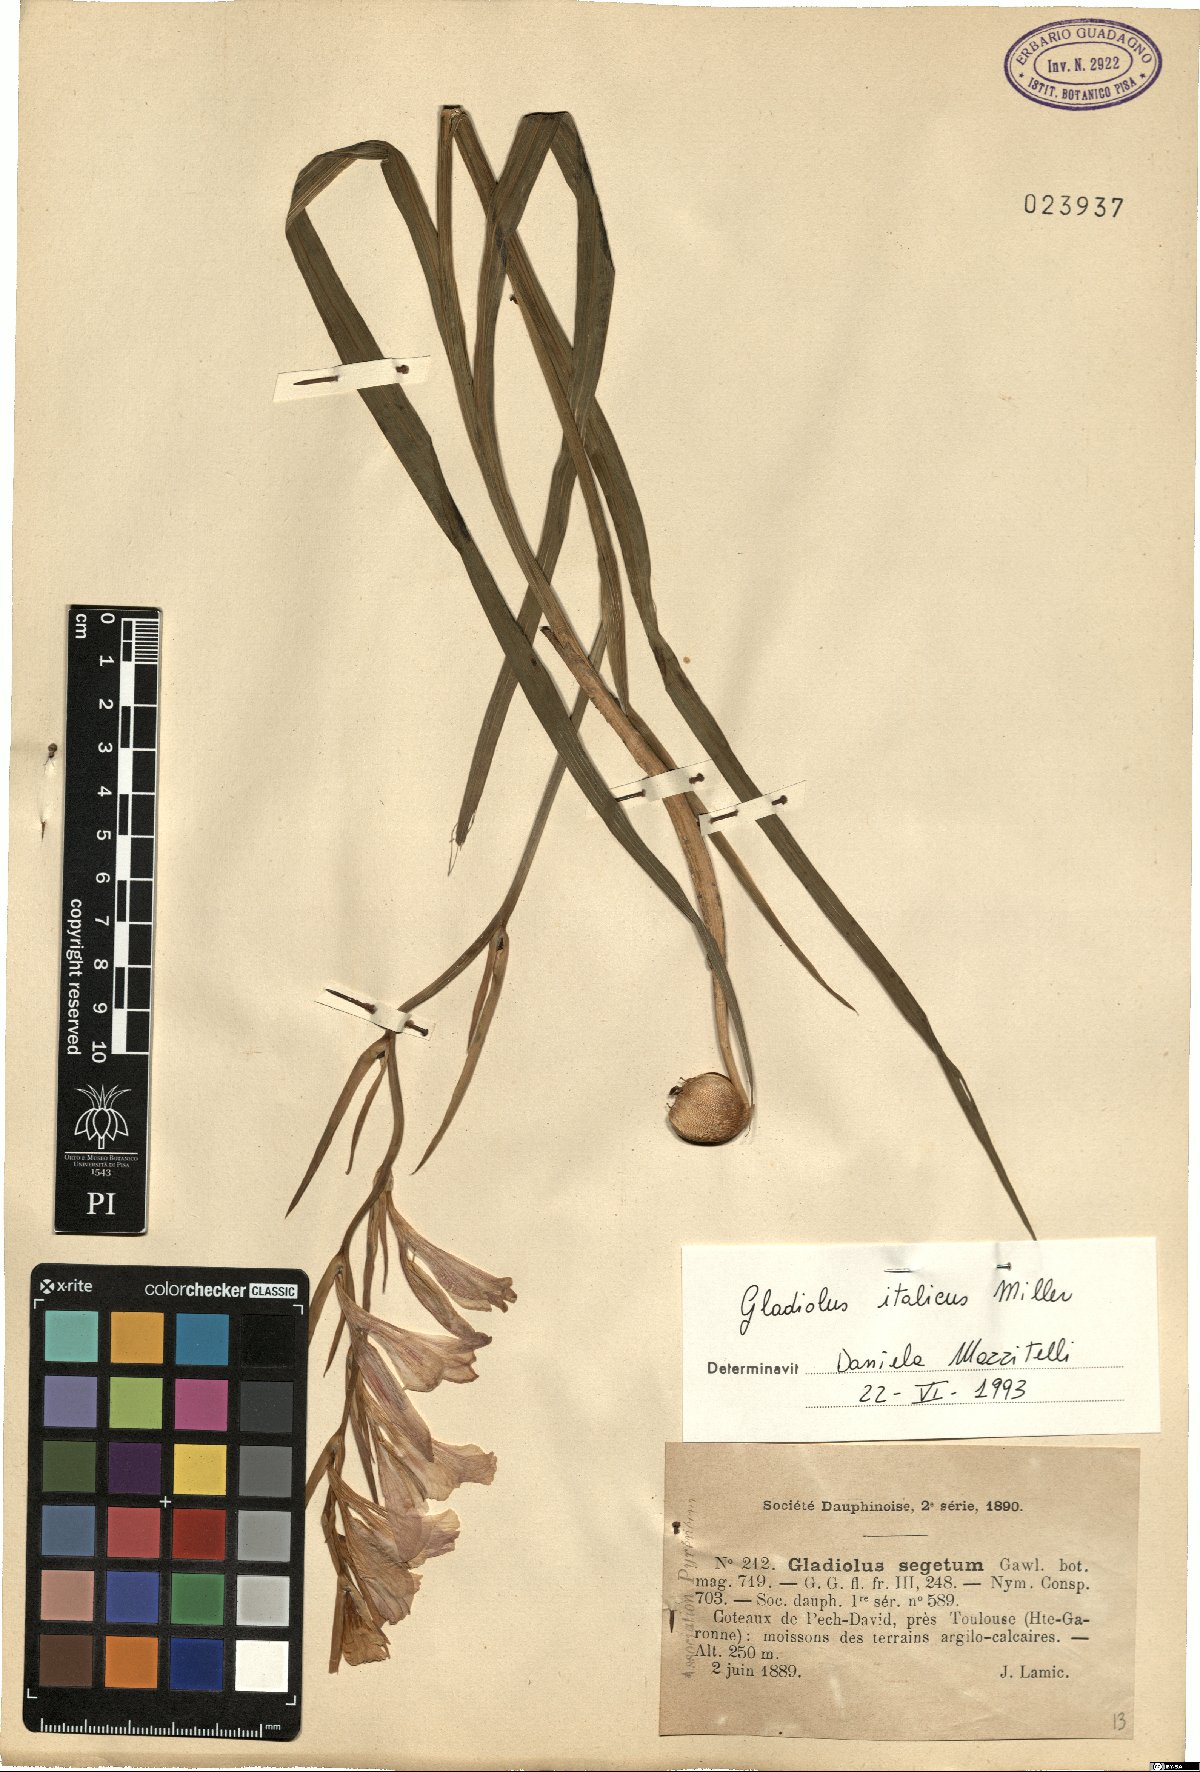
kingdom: Plantae
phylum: Tracheophyta
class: Liliopsida
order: Asparagales
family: Iridaceae
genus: Gladiolus
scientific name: Gladiolus italicus
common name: Field gladiolus
